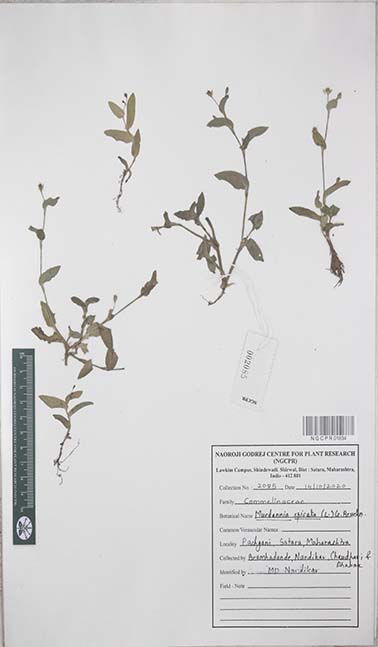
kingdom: Plantae
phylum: Tracheophyta
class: Liliopsida
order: Commelinales
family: Commelinaceae
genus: Murdannia
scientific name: Murdannia spirata
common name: Asiatic dewflower
